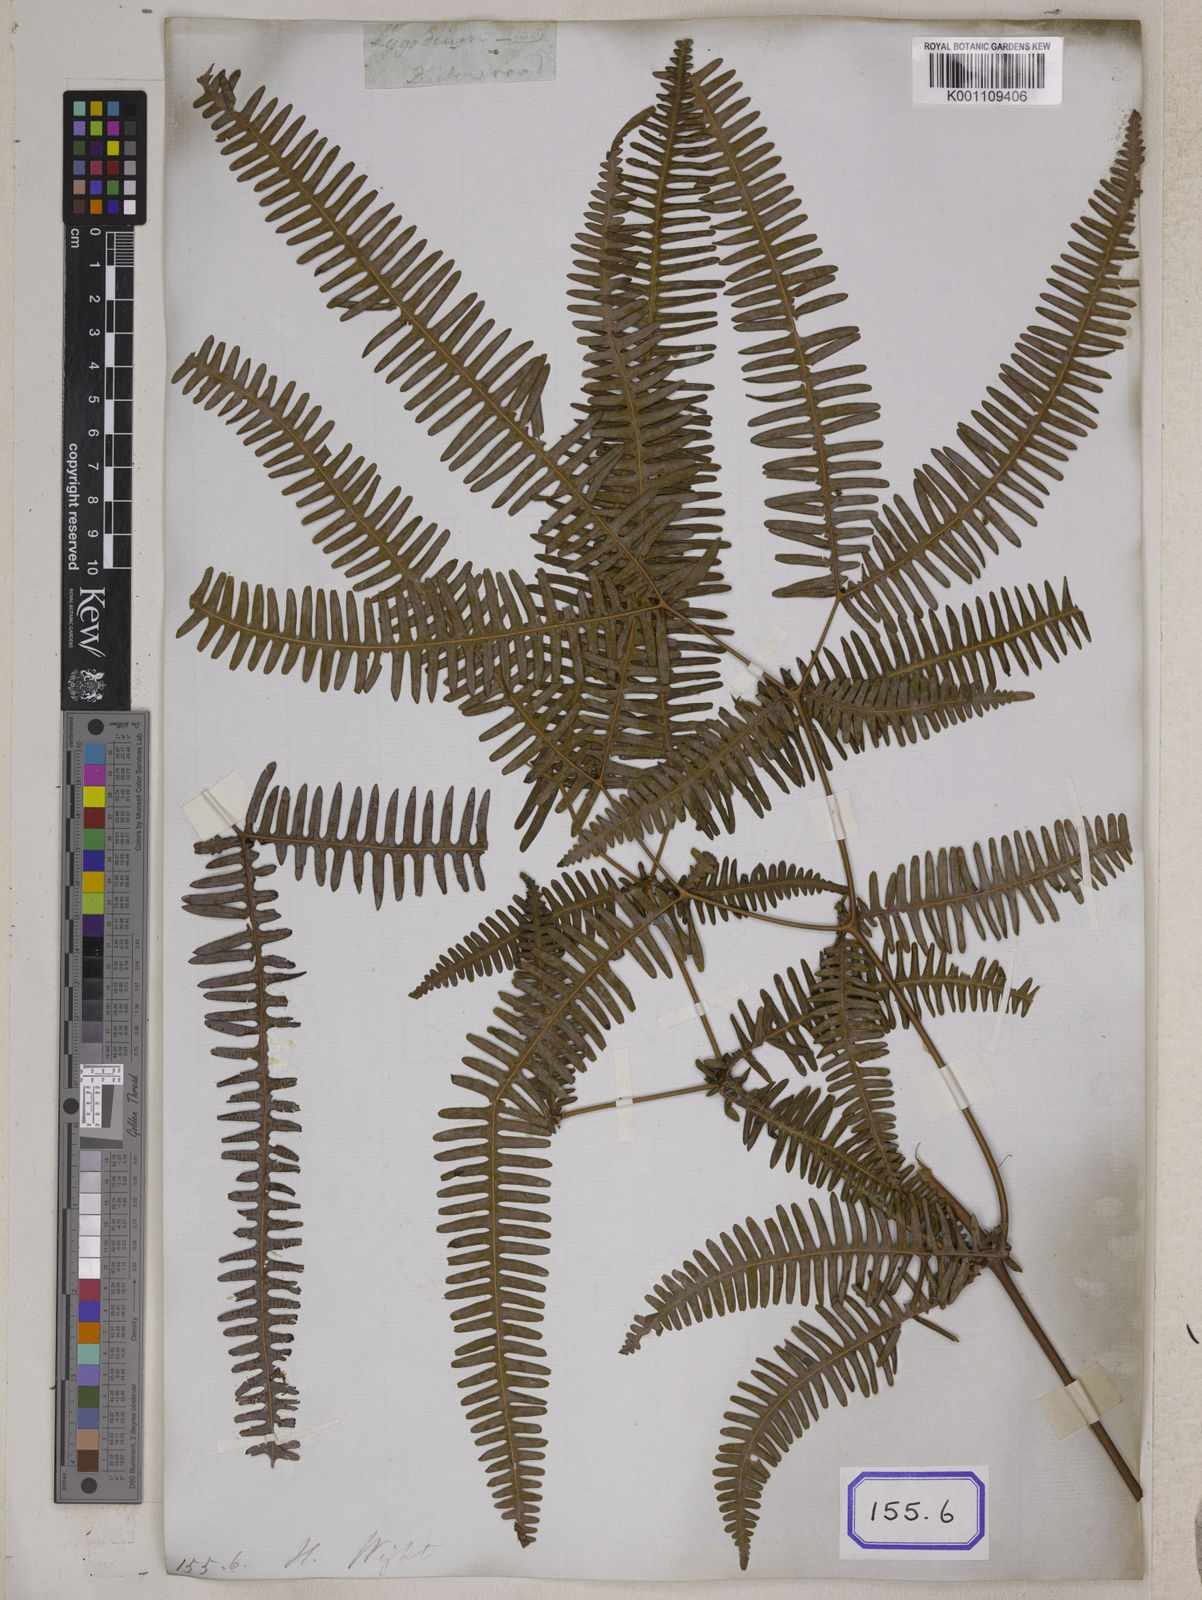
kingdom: Plantae
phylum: Tracheophyta
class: Polypodiopsida
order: Gleicheniales
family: Gleicheniaceae
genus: Dicranopteris
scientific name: Dicranopteris linearis
